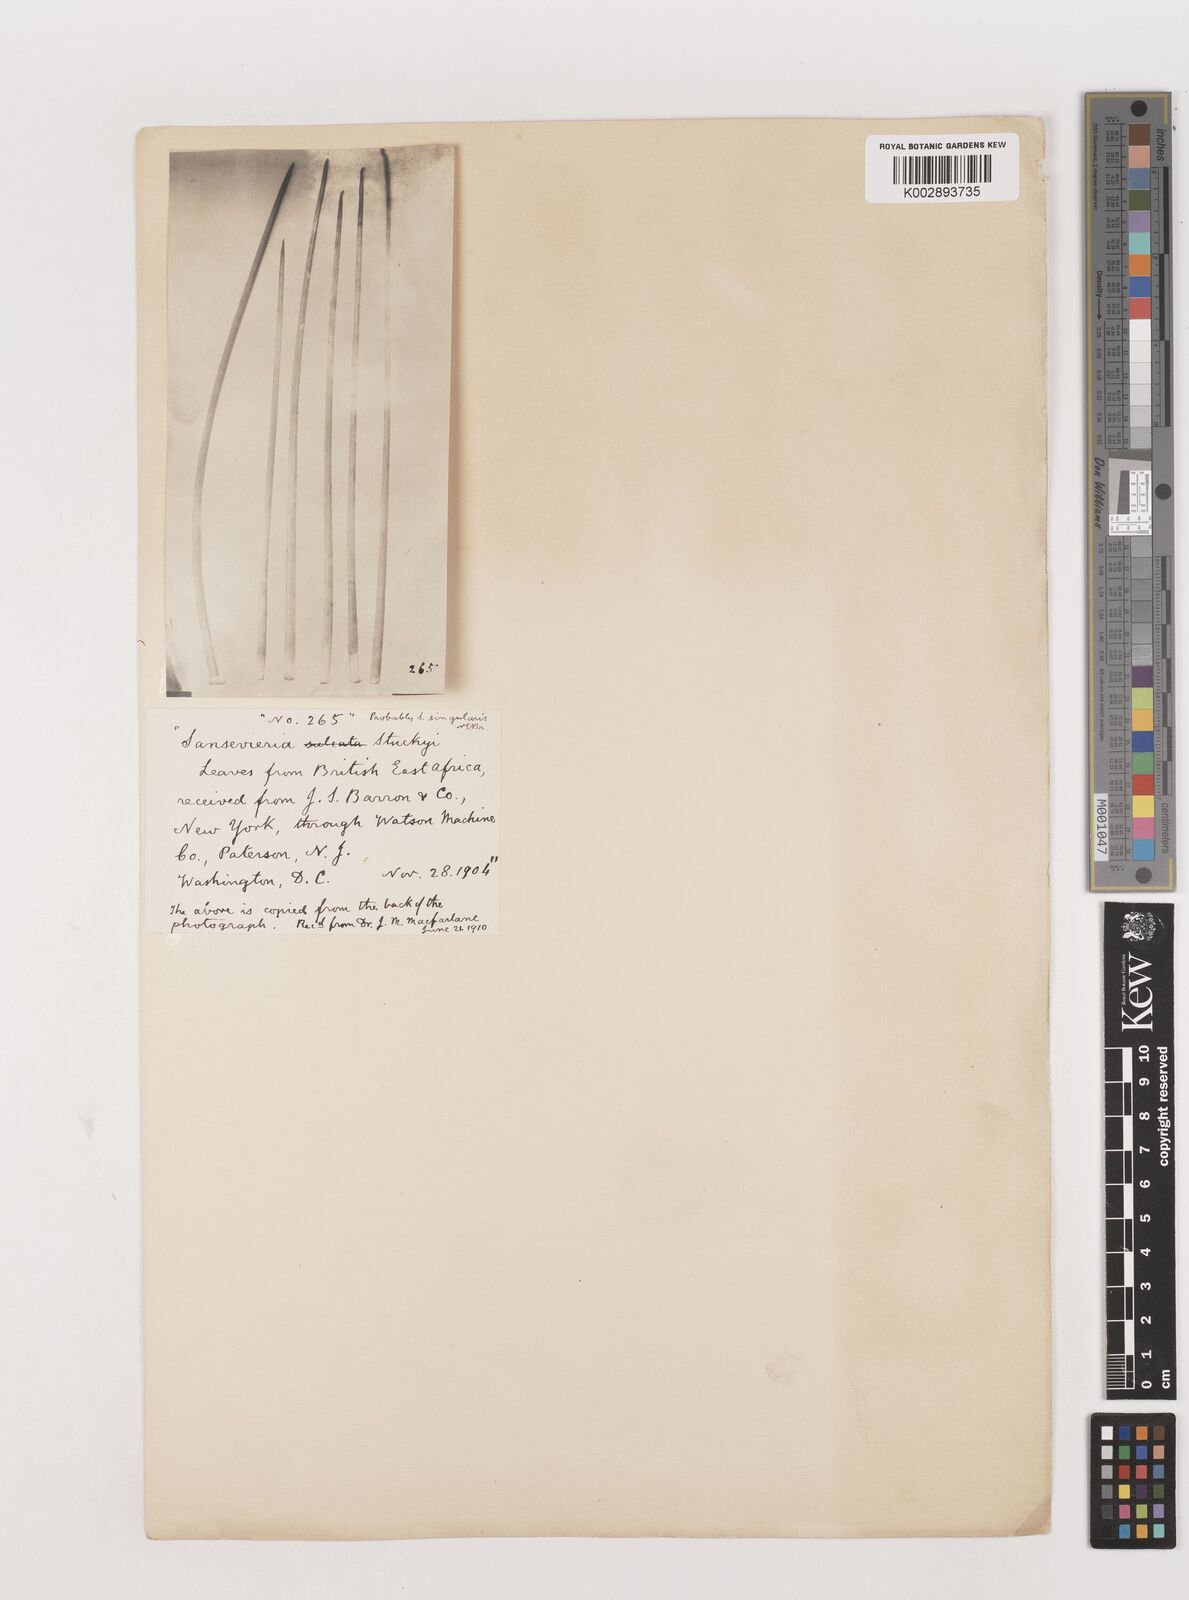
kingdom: Plantae
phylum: Tracheophyta
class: Liliopsida
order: Asparagales
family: Asparagaceae
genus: Dracaena
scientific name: Dracaena singularis
